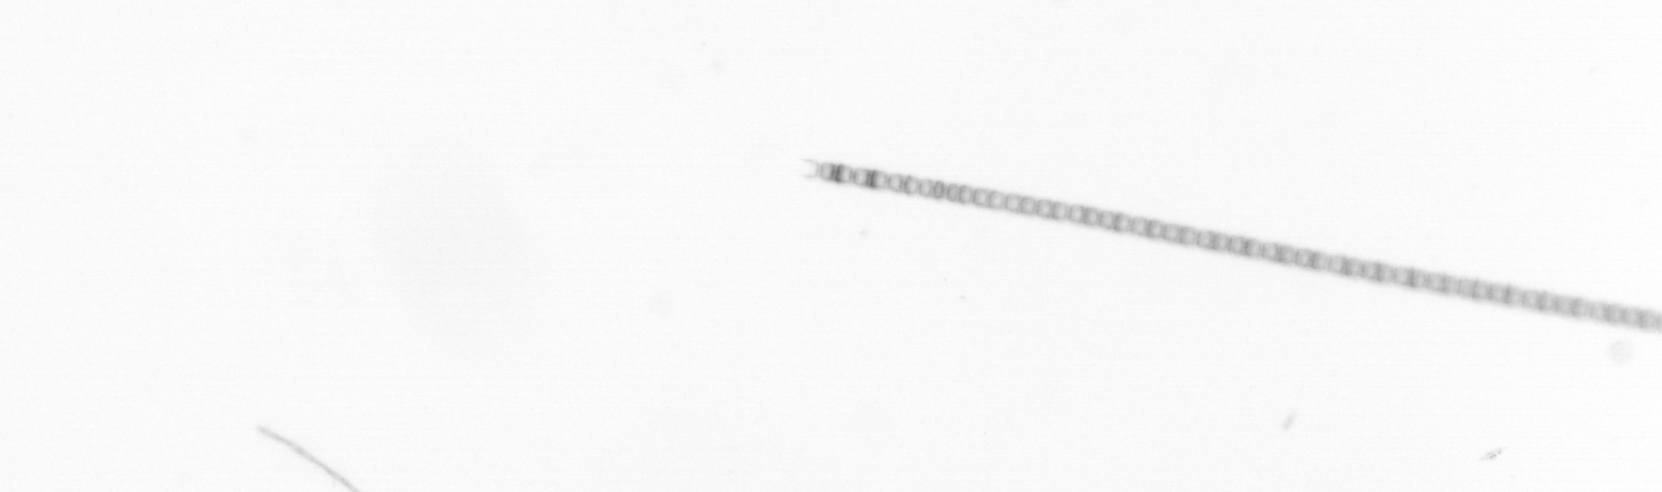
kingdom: Chromista
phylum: Ochrophyta
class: Bacillariophyceae
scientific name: Bacillariophyceae
